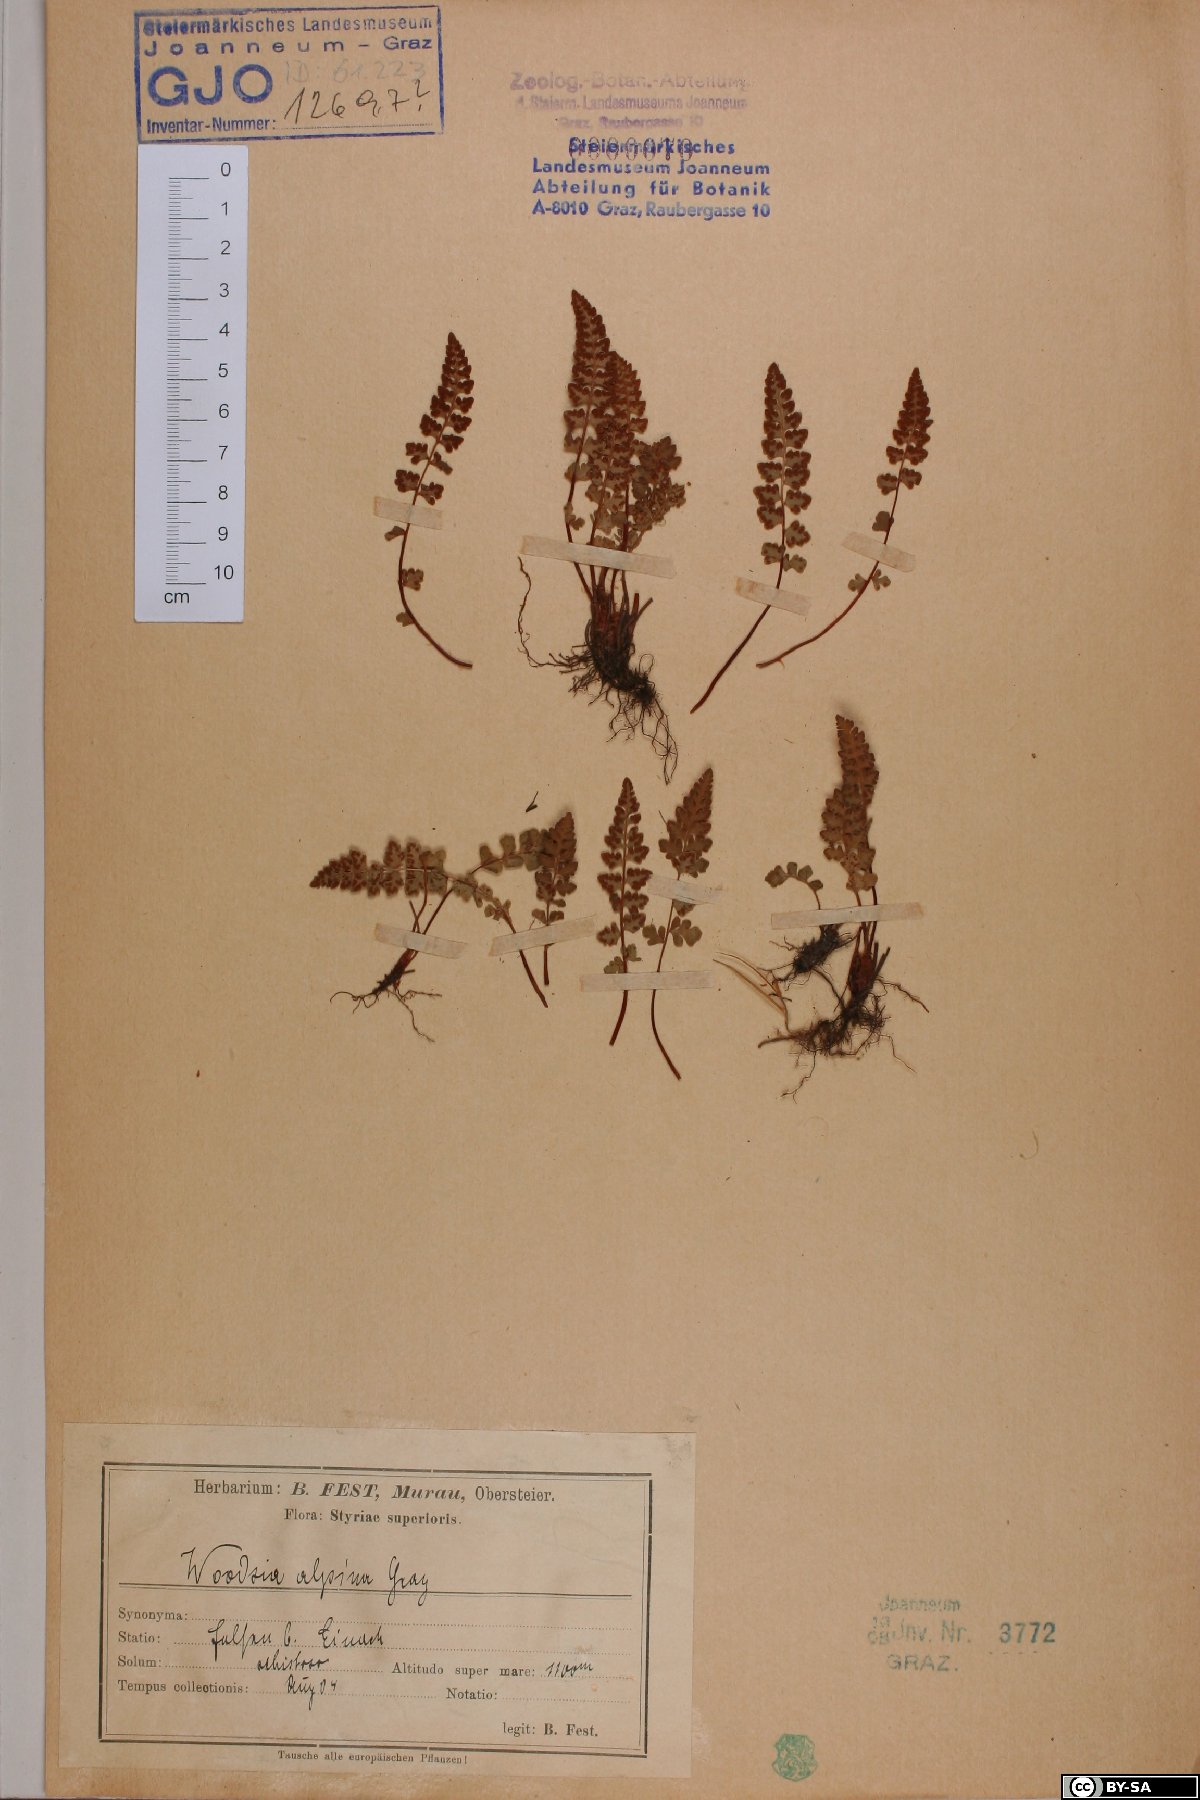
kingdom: Plantae
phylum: Tracheophyta
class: Polypodiopsida
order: Polypodiales
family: Woodsiaceae
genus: Woodsia
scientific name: Woodsia alpina
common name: Alpine woodsia
